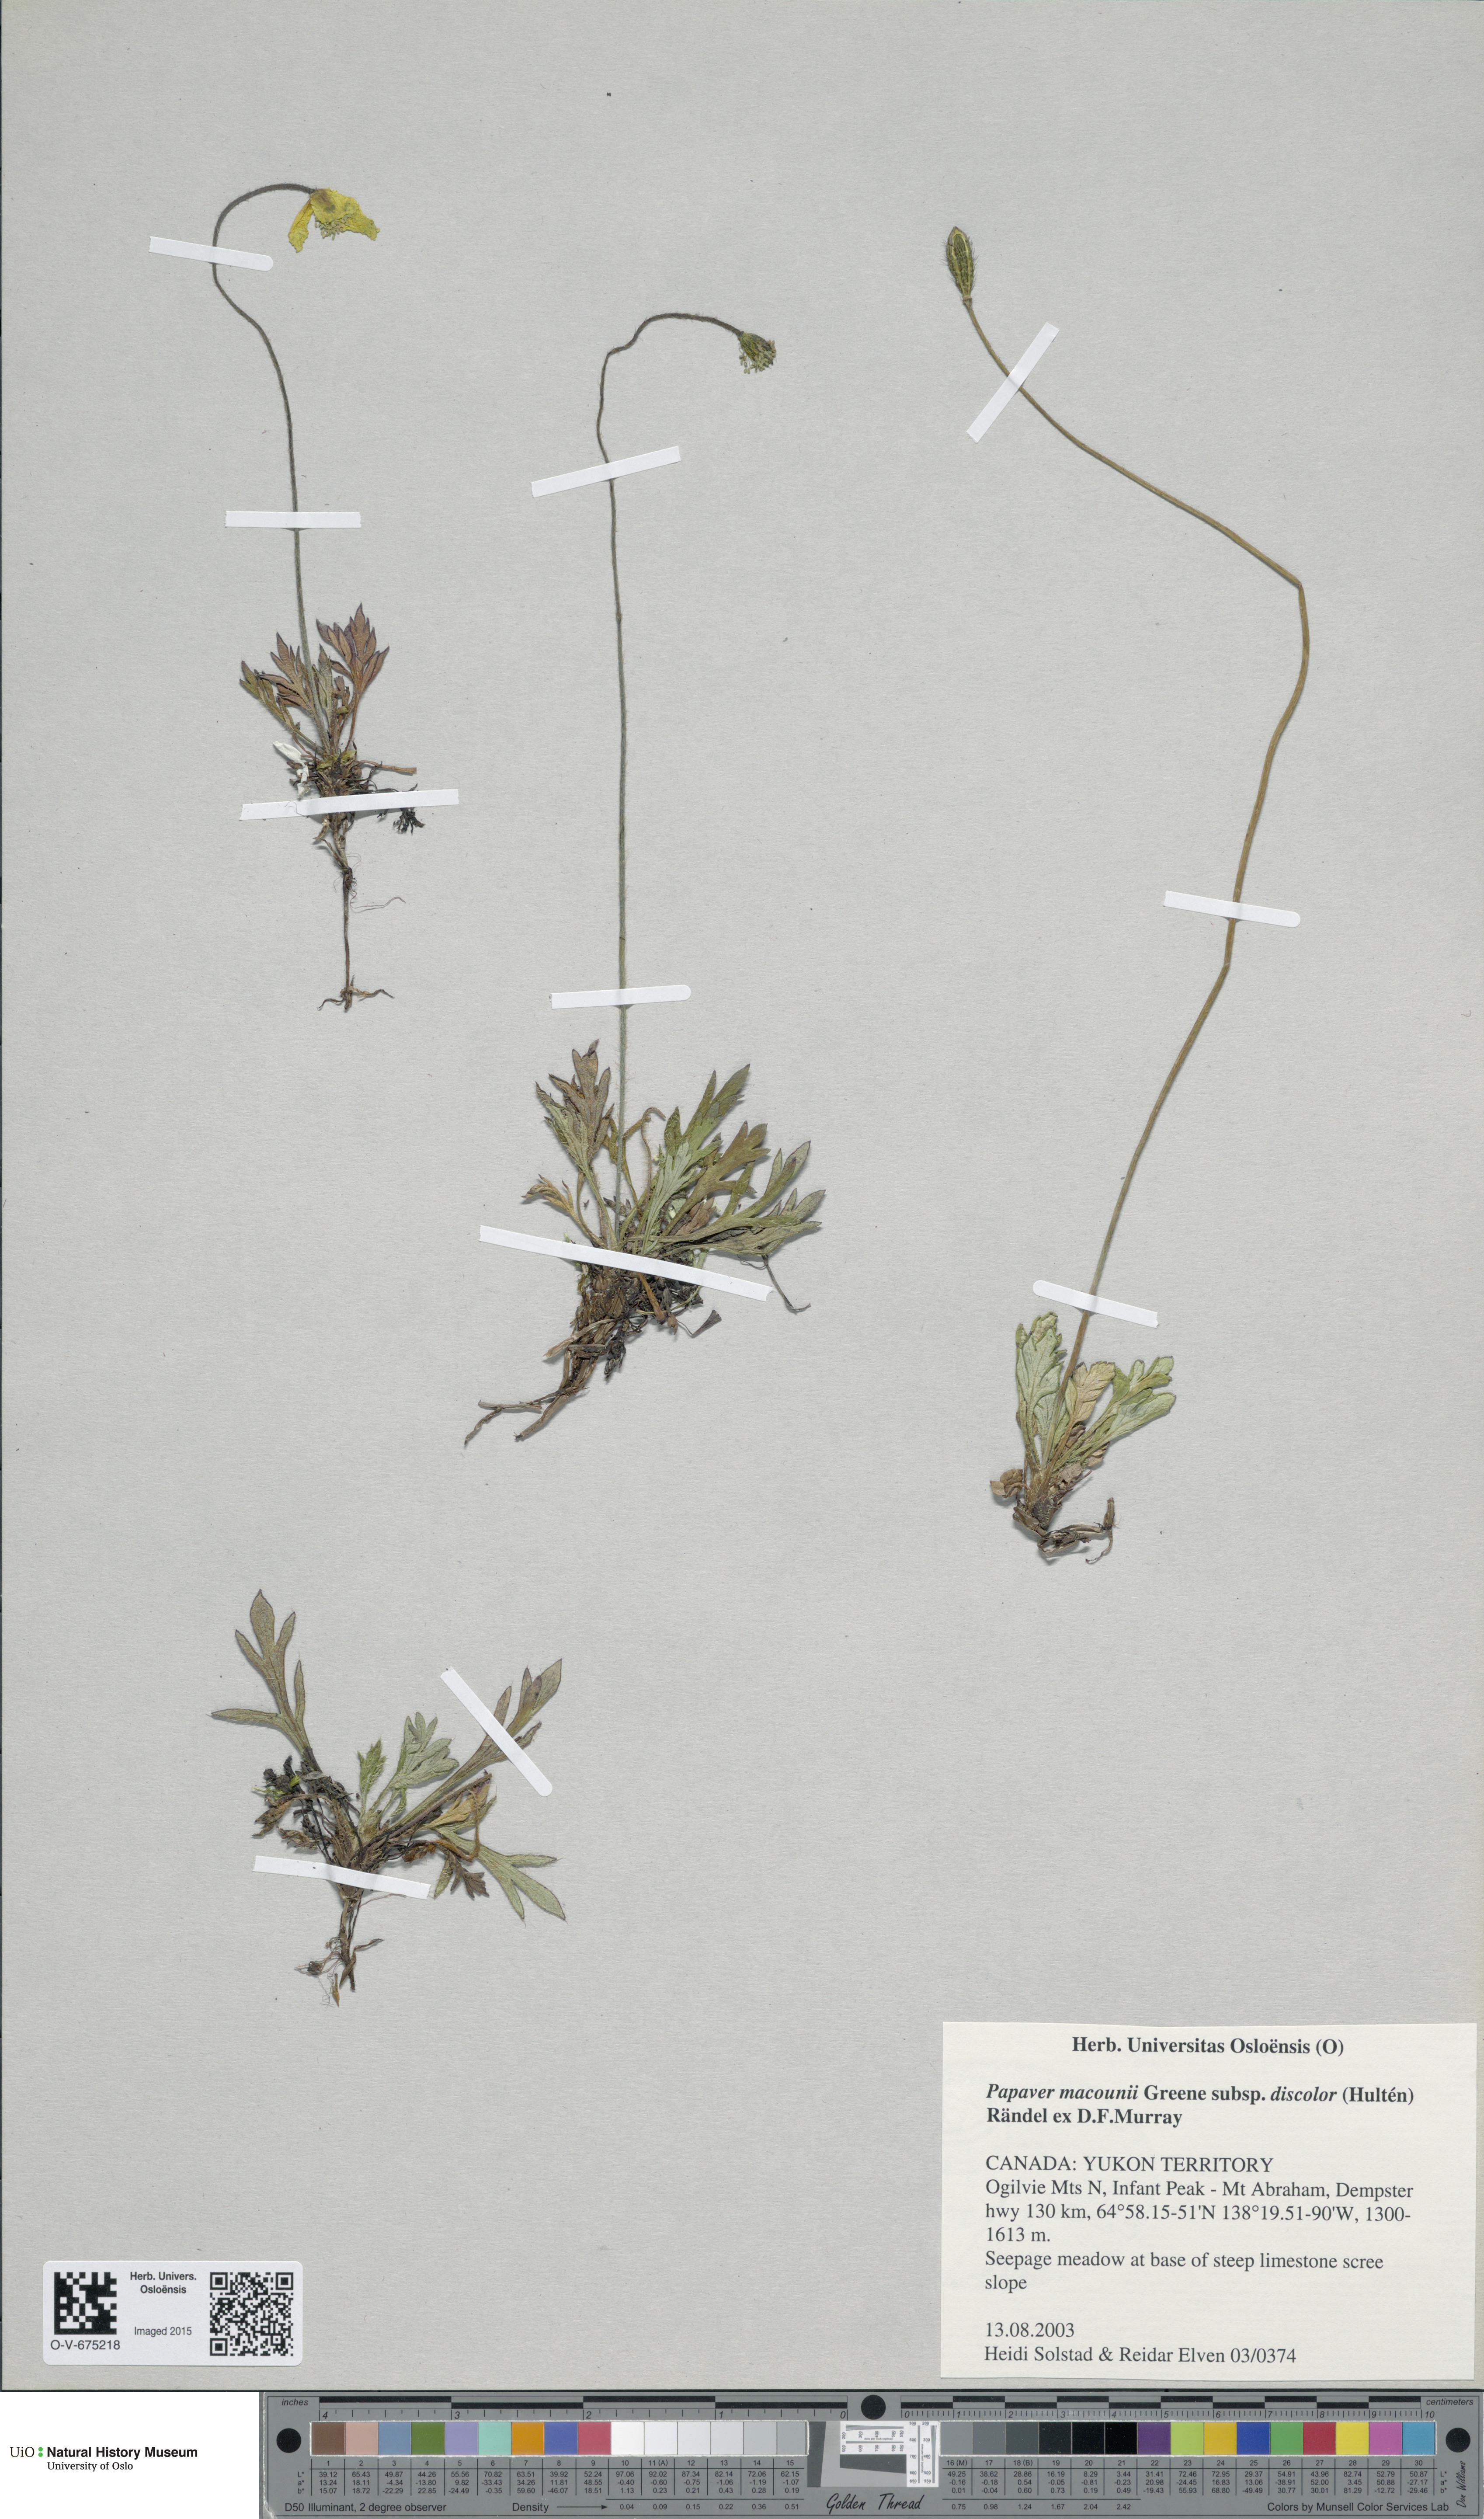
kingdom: Plantae
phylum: Tracheophyta
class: Magnoliopsida
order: Ranunculales
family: Papaveraceae
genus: Papaver
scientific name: Papaver macounii
